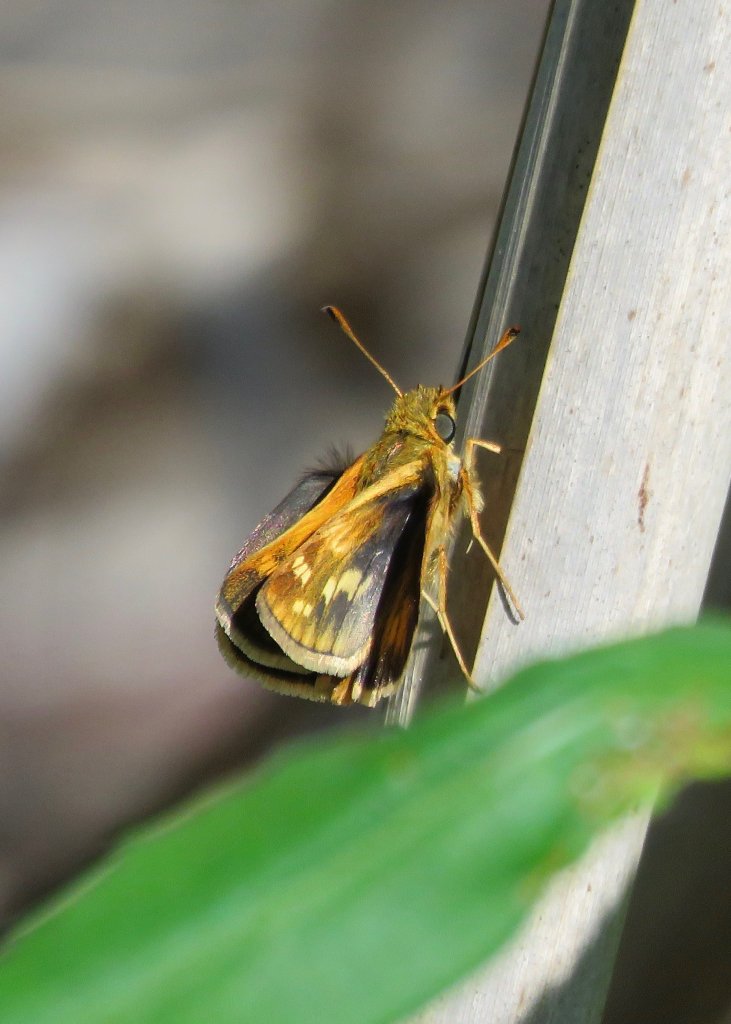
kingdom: Animalia
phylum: Arthropoda
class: Insecta
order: Lepidoptera
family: Hesperiidae
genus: Polites
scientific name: Polites coras
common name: Peck's Skipper
